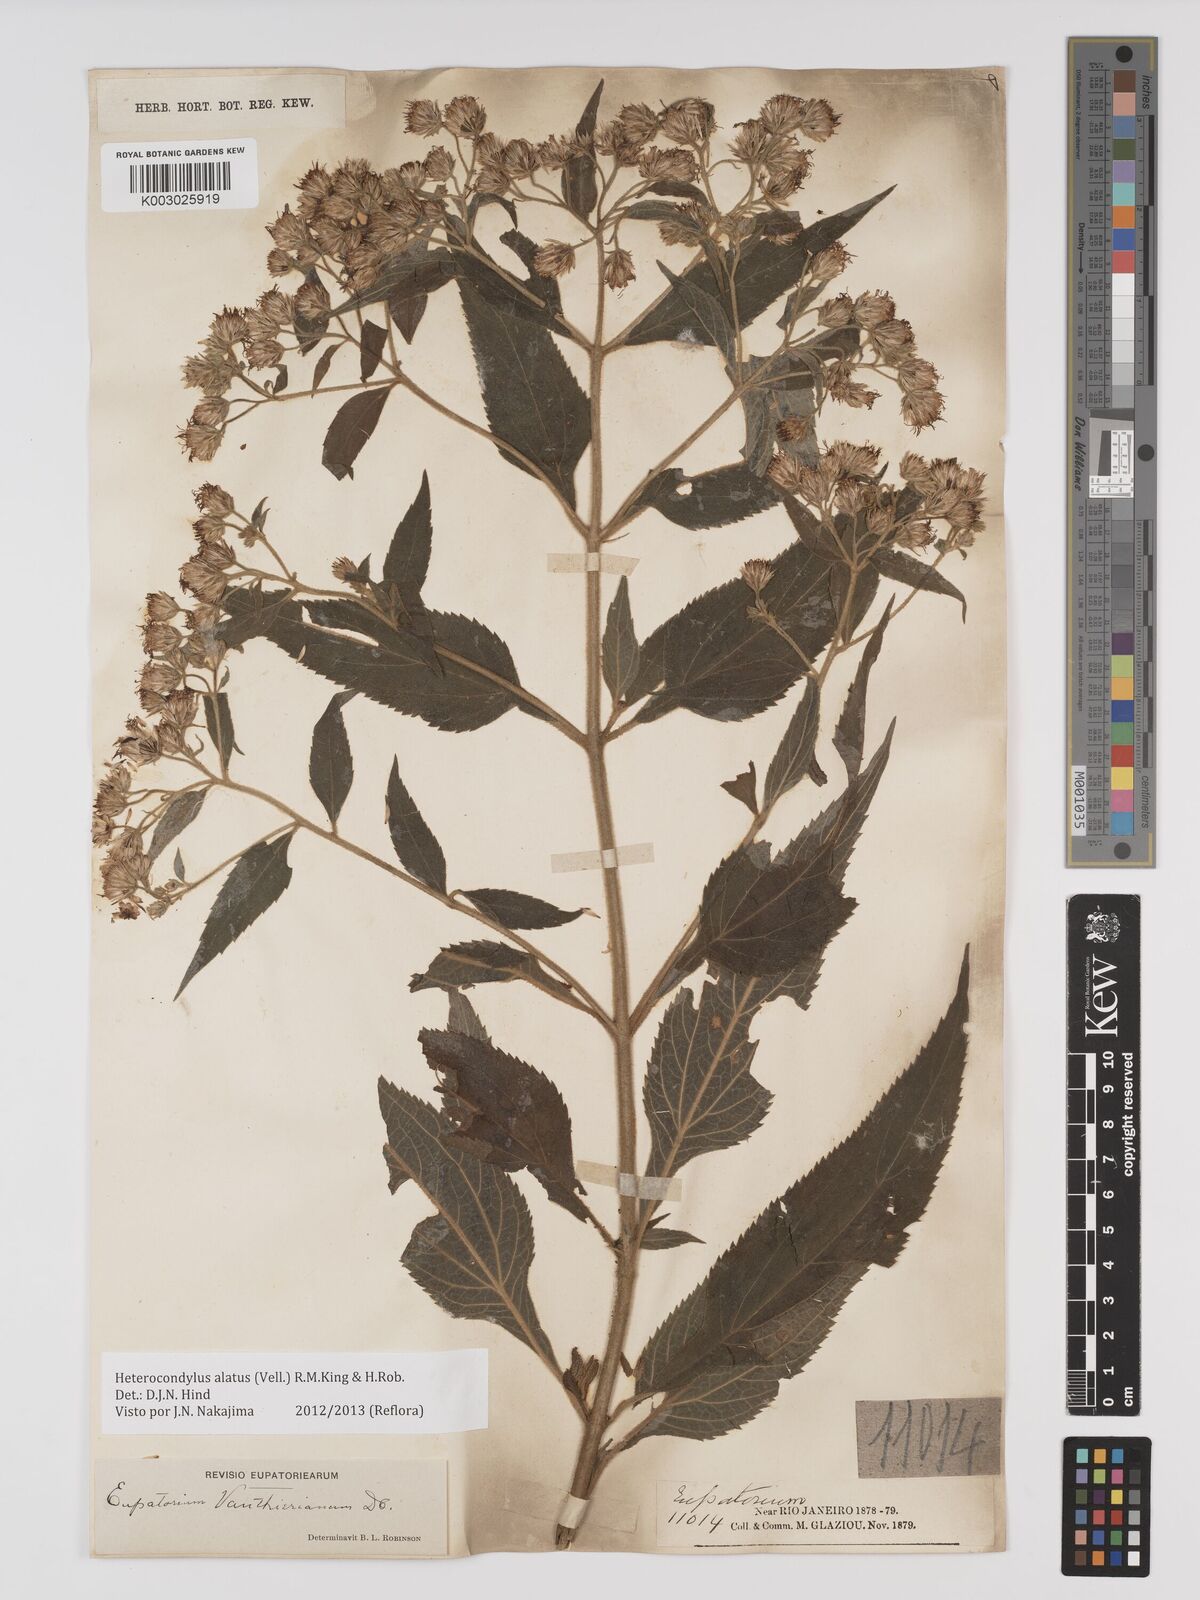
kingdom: Plantae
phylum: Tracheophyta
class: Magnoliopsida
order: Asterales
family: Asteraceae
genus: Heterocondylus
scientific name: Heterocondylus alatus
